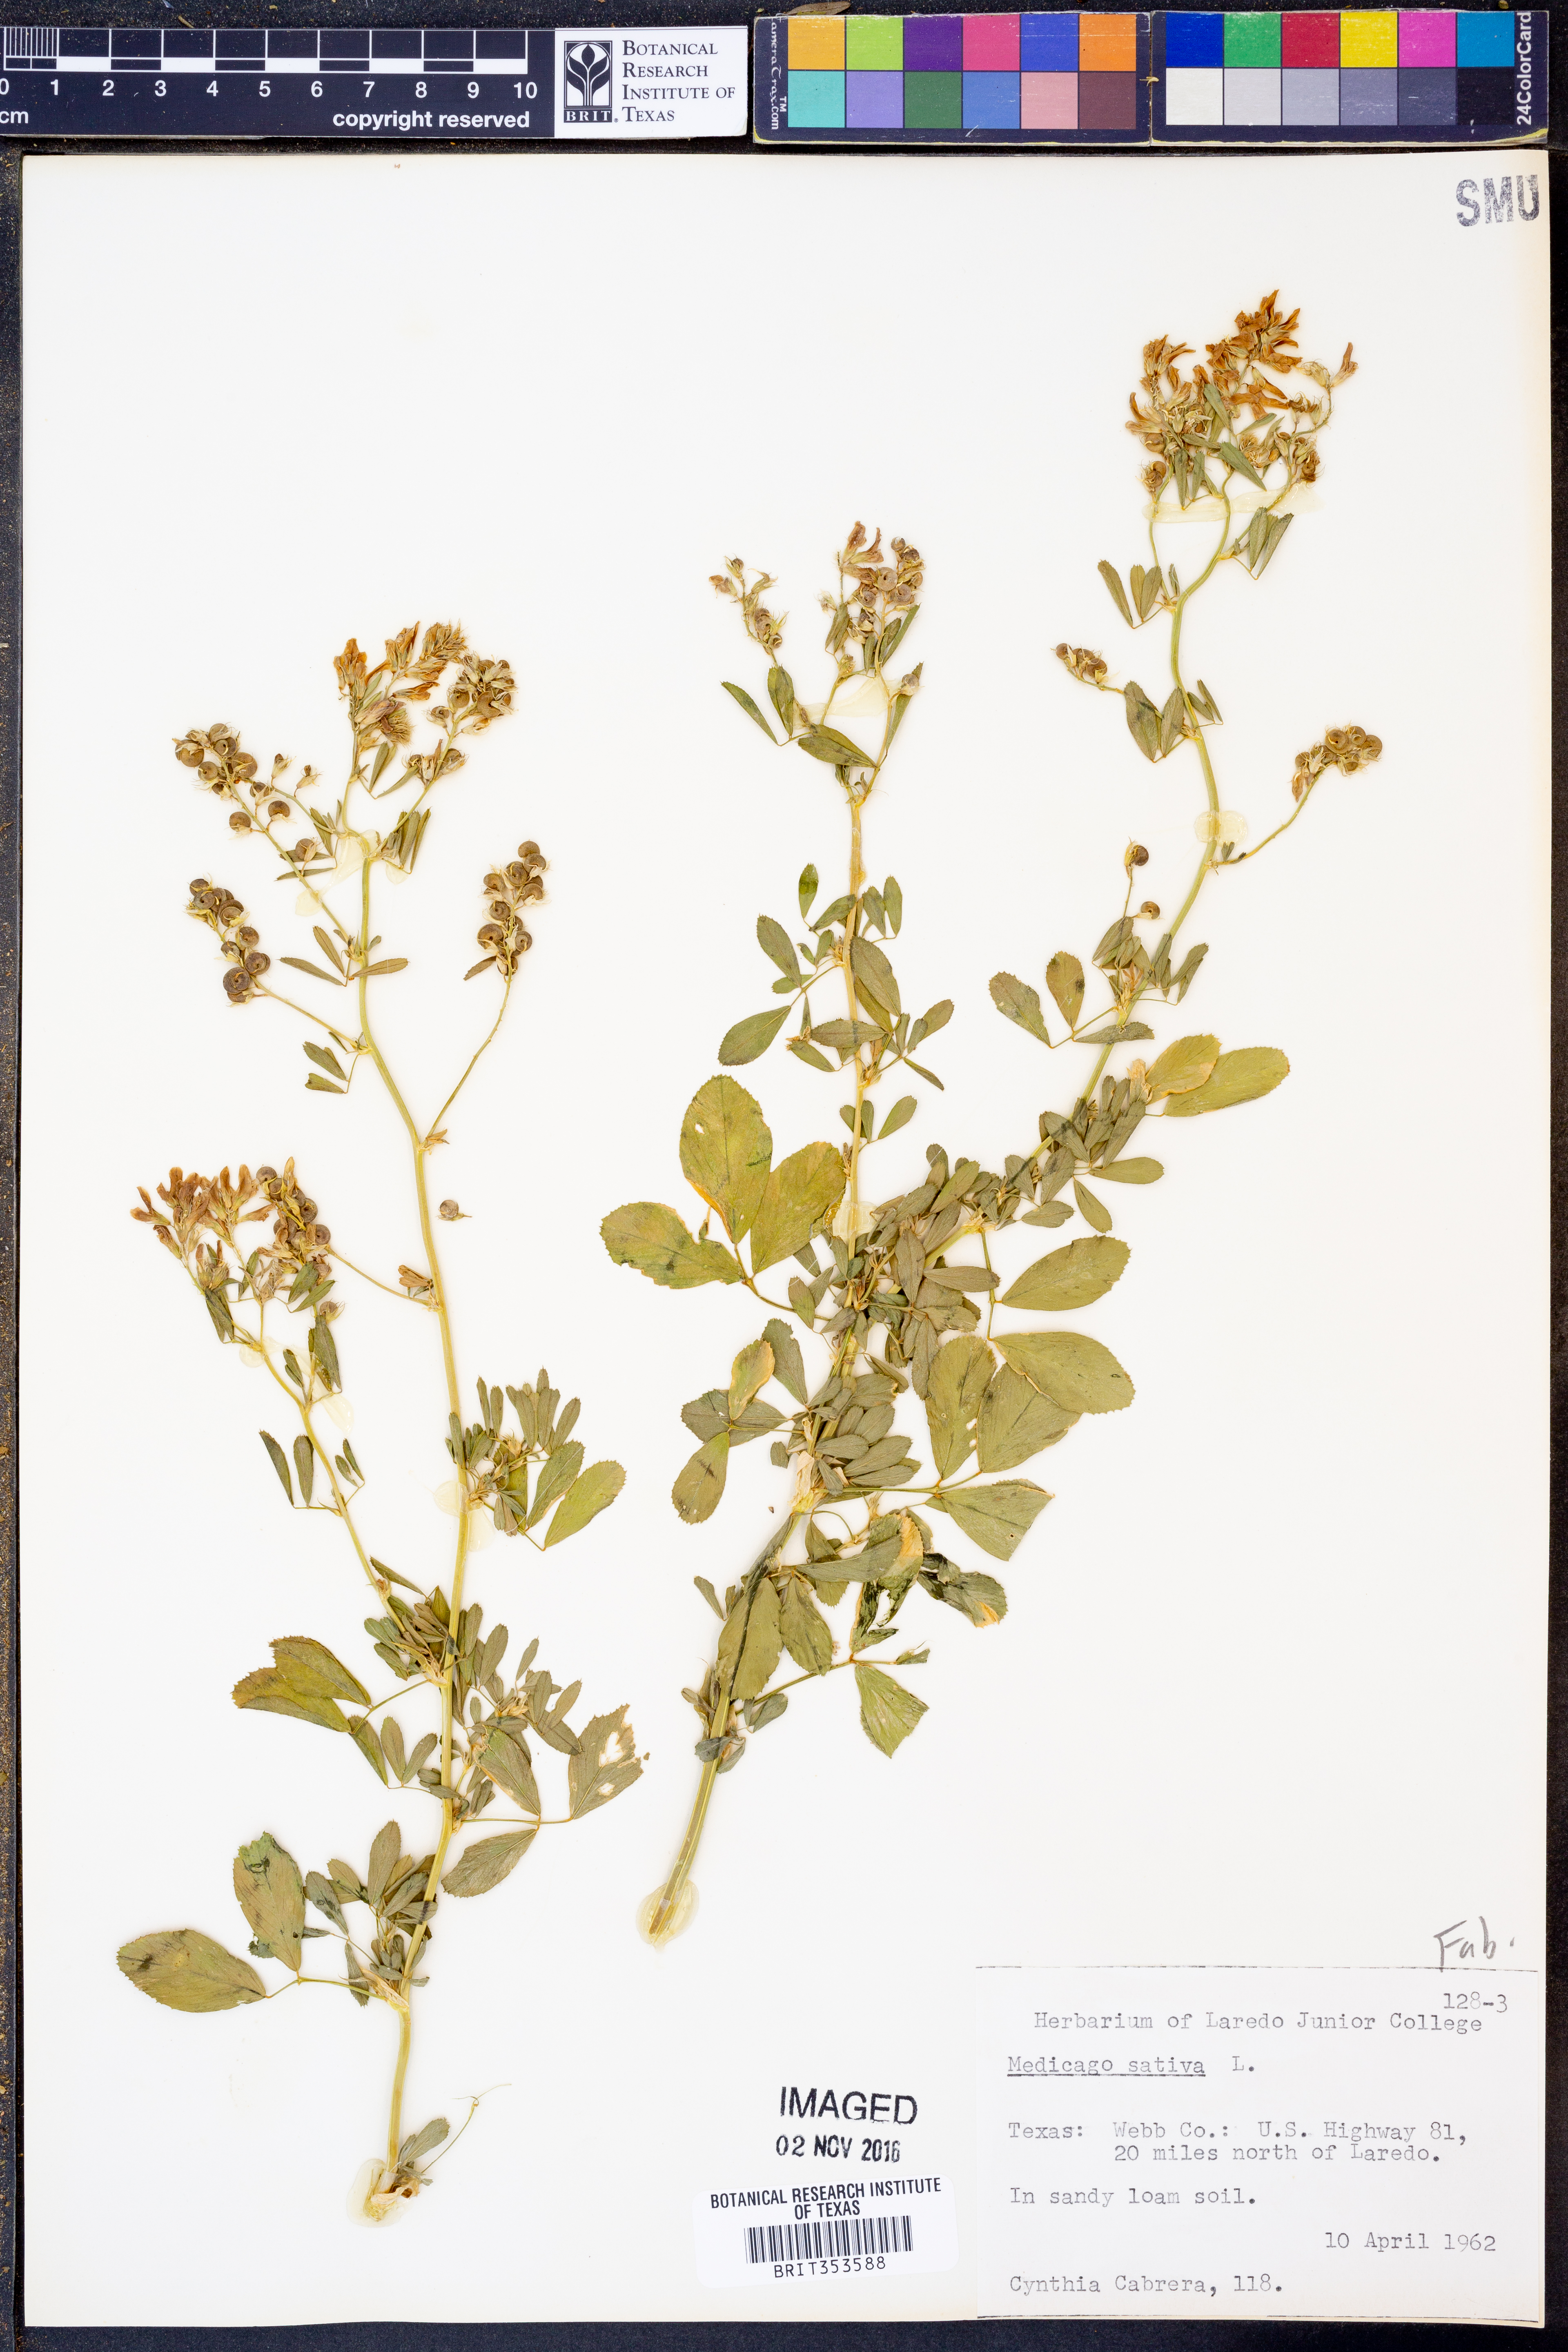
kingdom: Plantae
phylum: Tracheophyta
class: Magnoliopsida
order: Fabales
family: Fabaceae
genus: Medicago
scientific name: Medicago sativa
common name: Alfalfa
